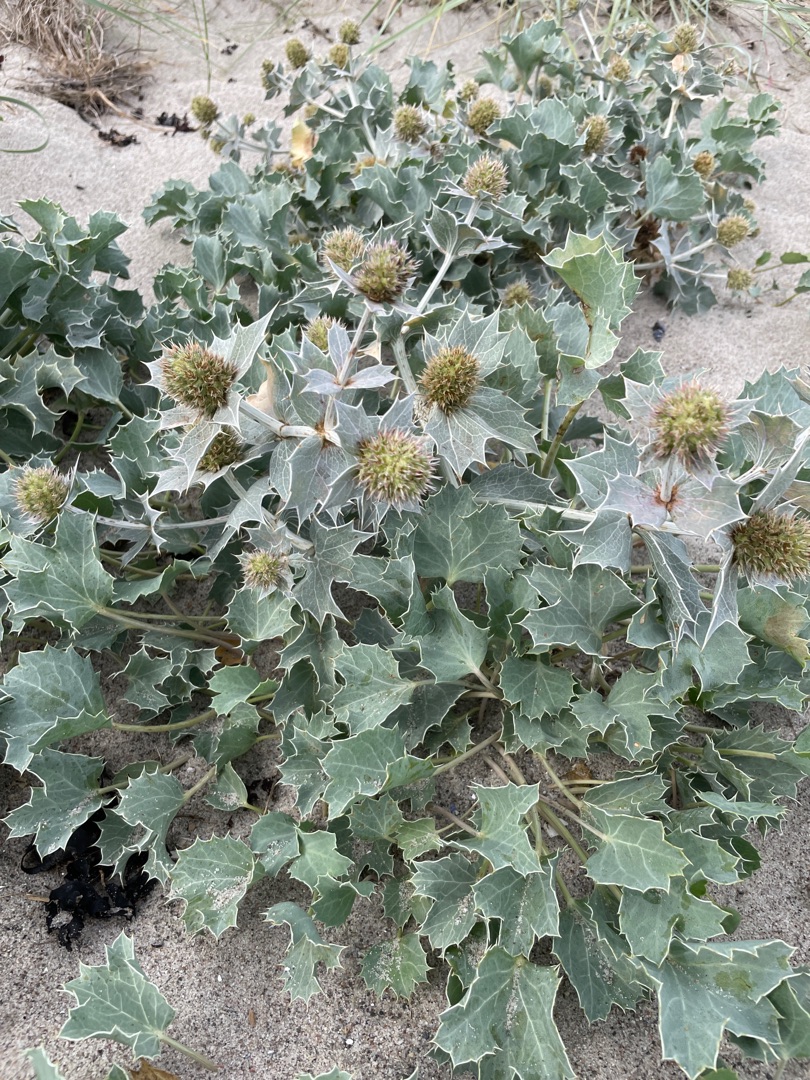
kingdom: Plantae
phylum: Tracheophyta
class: Magnoliopsida
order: Apiales
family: Apiaceae
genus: Eryngium
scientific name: Eryngium maritimum
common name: Strand-mandstro
